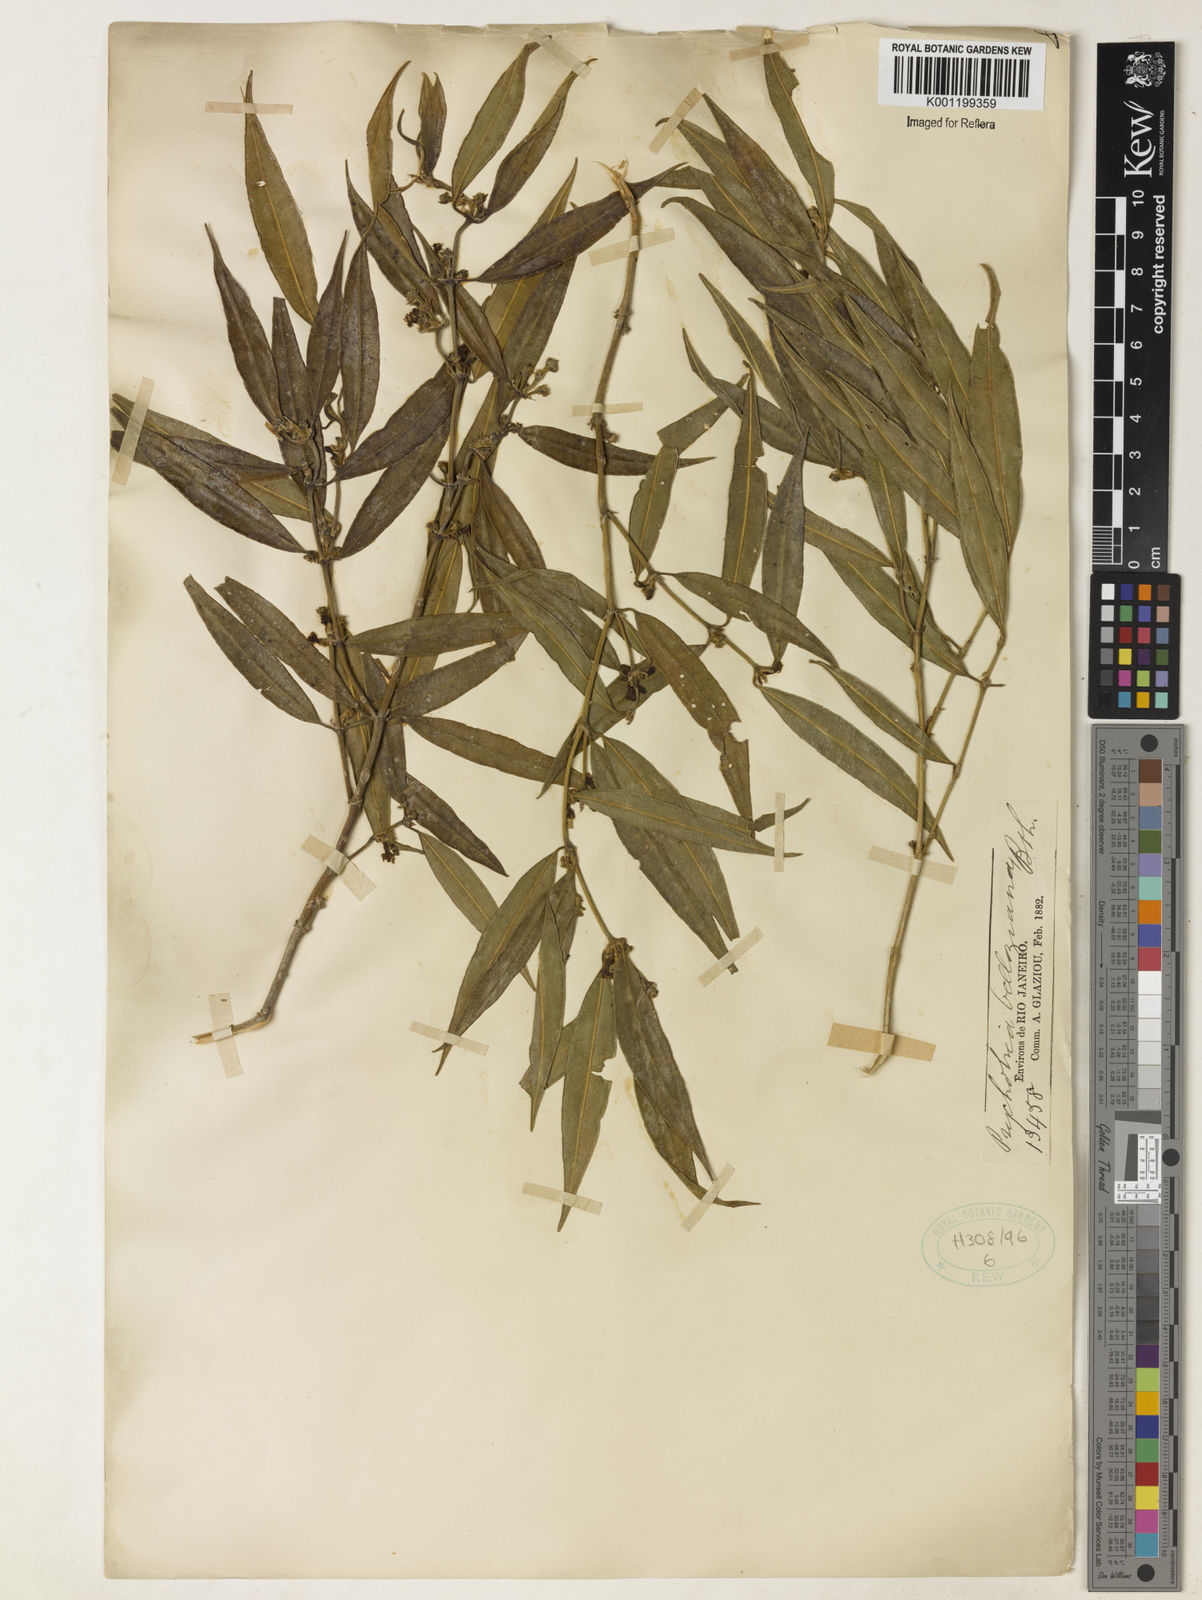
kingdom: Plantae
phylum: Tracheophyta
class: Magnoliopsida
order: Gentianales
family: Rubiaceae
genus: Palicourea
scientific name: Palicourea sessilis
